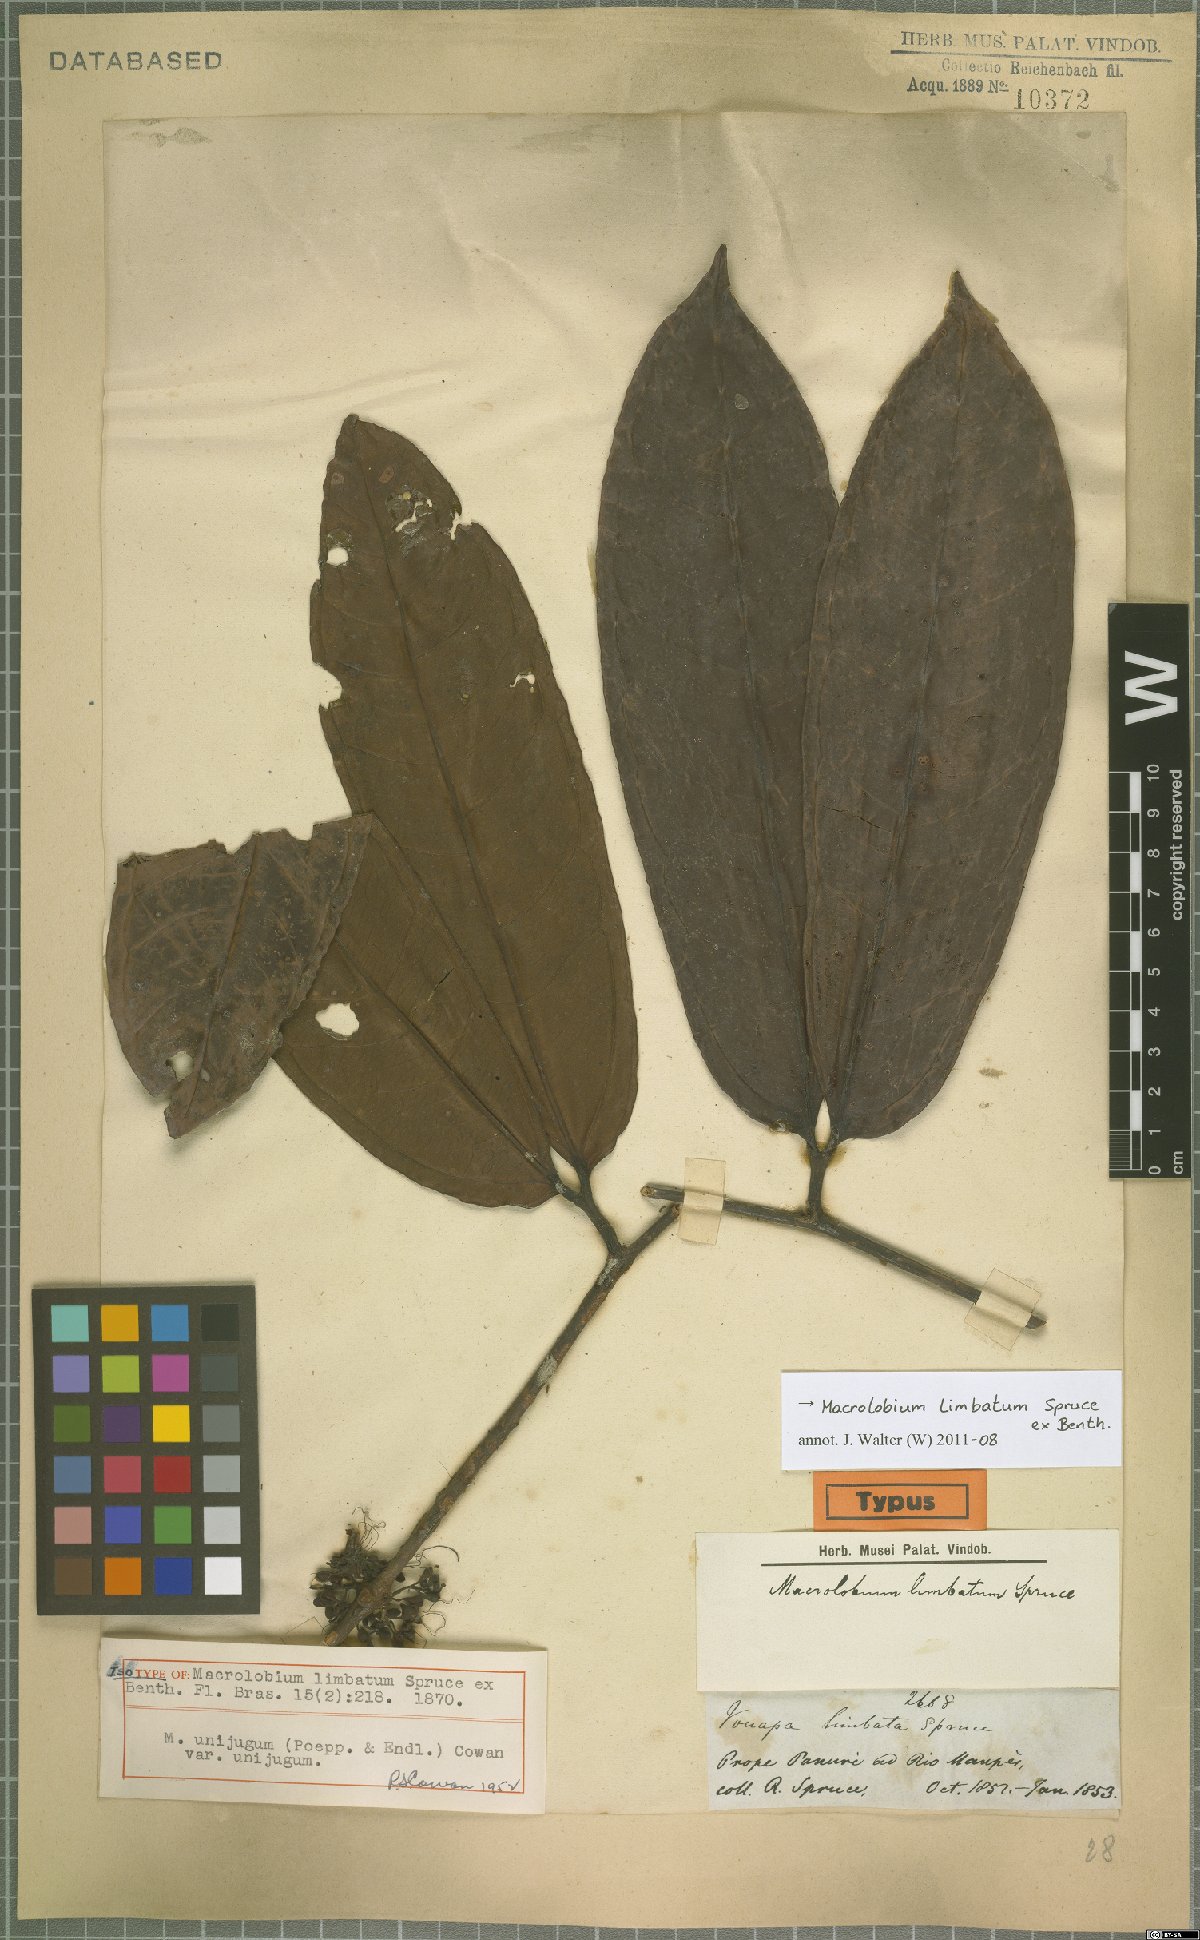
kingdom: Plantae
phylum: Tracheophyta
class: Magnoliopsida
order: Fabales
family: Fabaceae
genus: Macrolobium
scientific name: Macrolobium limbatum
